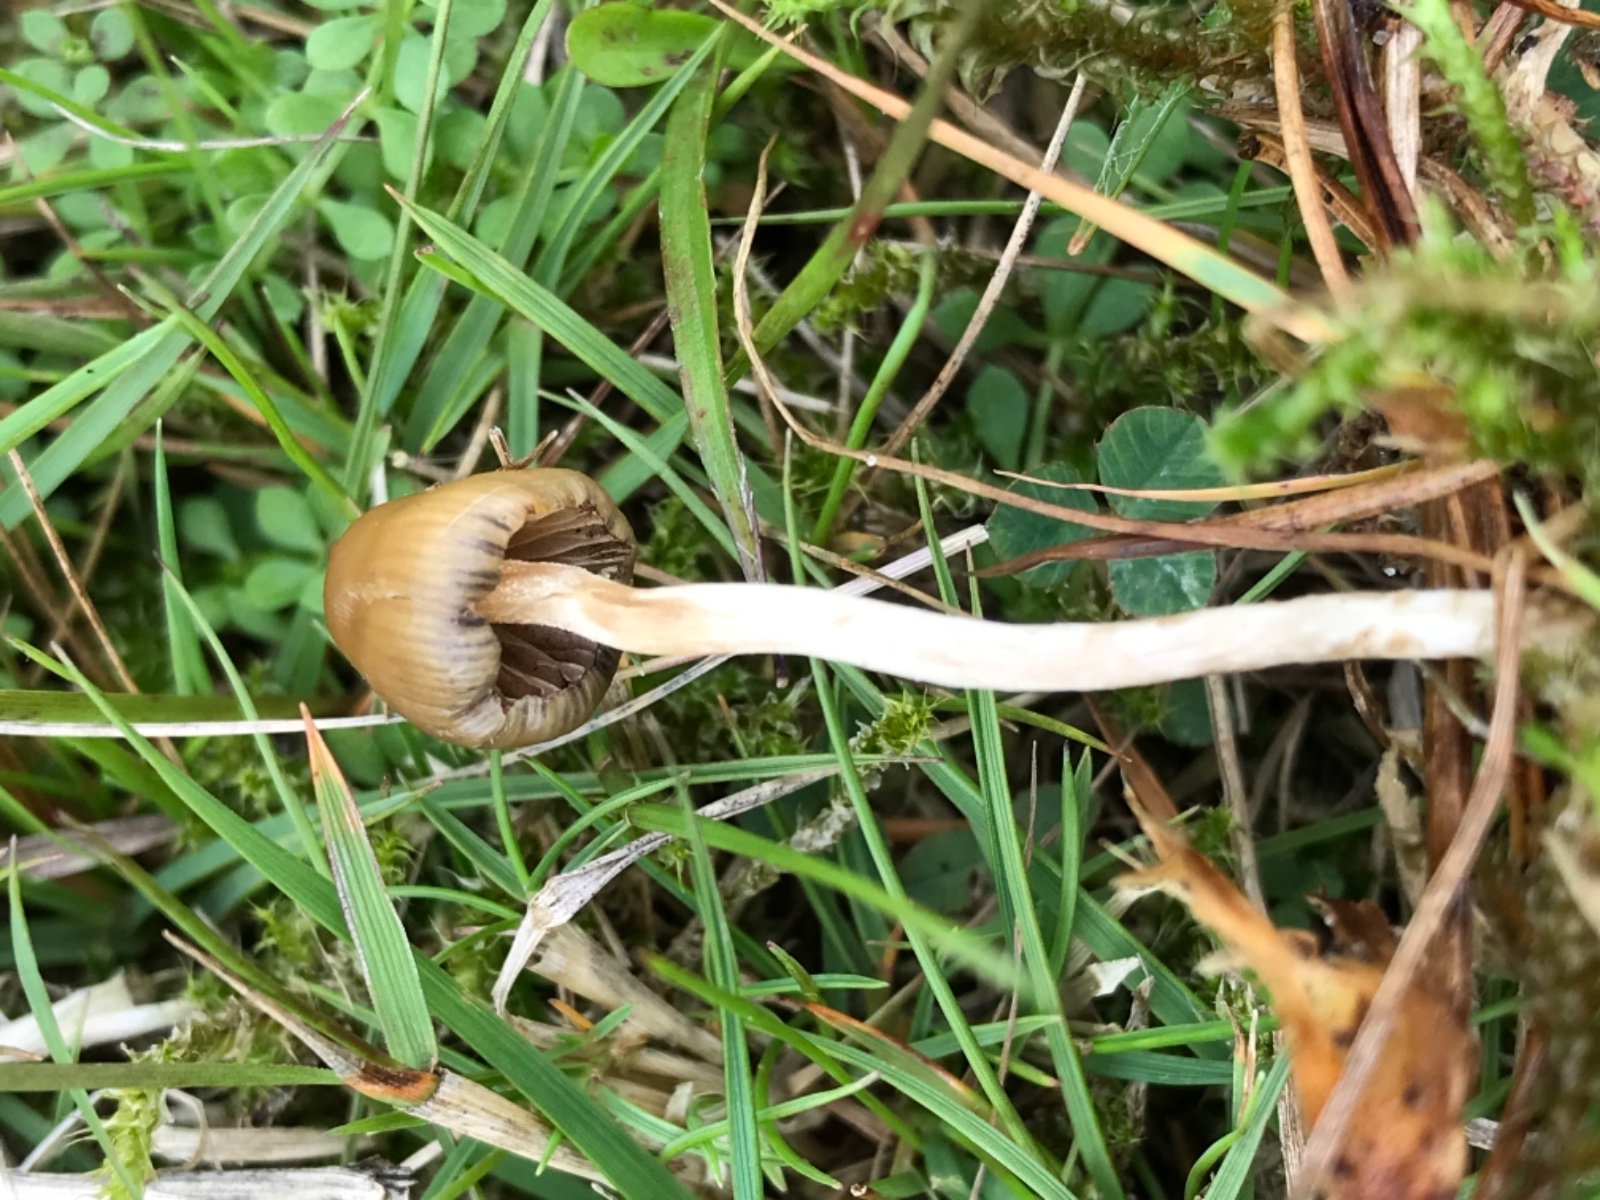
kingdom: Fungi
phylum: Basidiomycota
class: Agaricomycetes
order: Agaricales
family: Hymenogastraceae
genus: Psilocybe
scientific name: Psilocybe semilanceata
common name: spids nøgenhat
